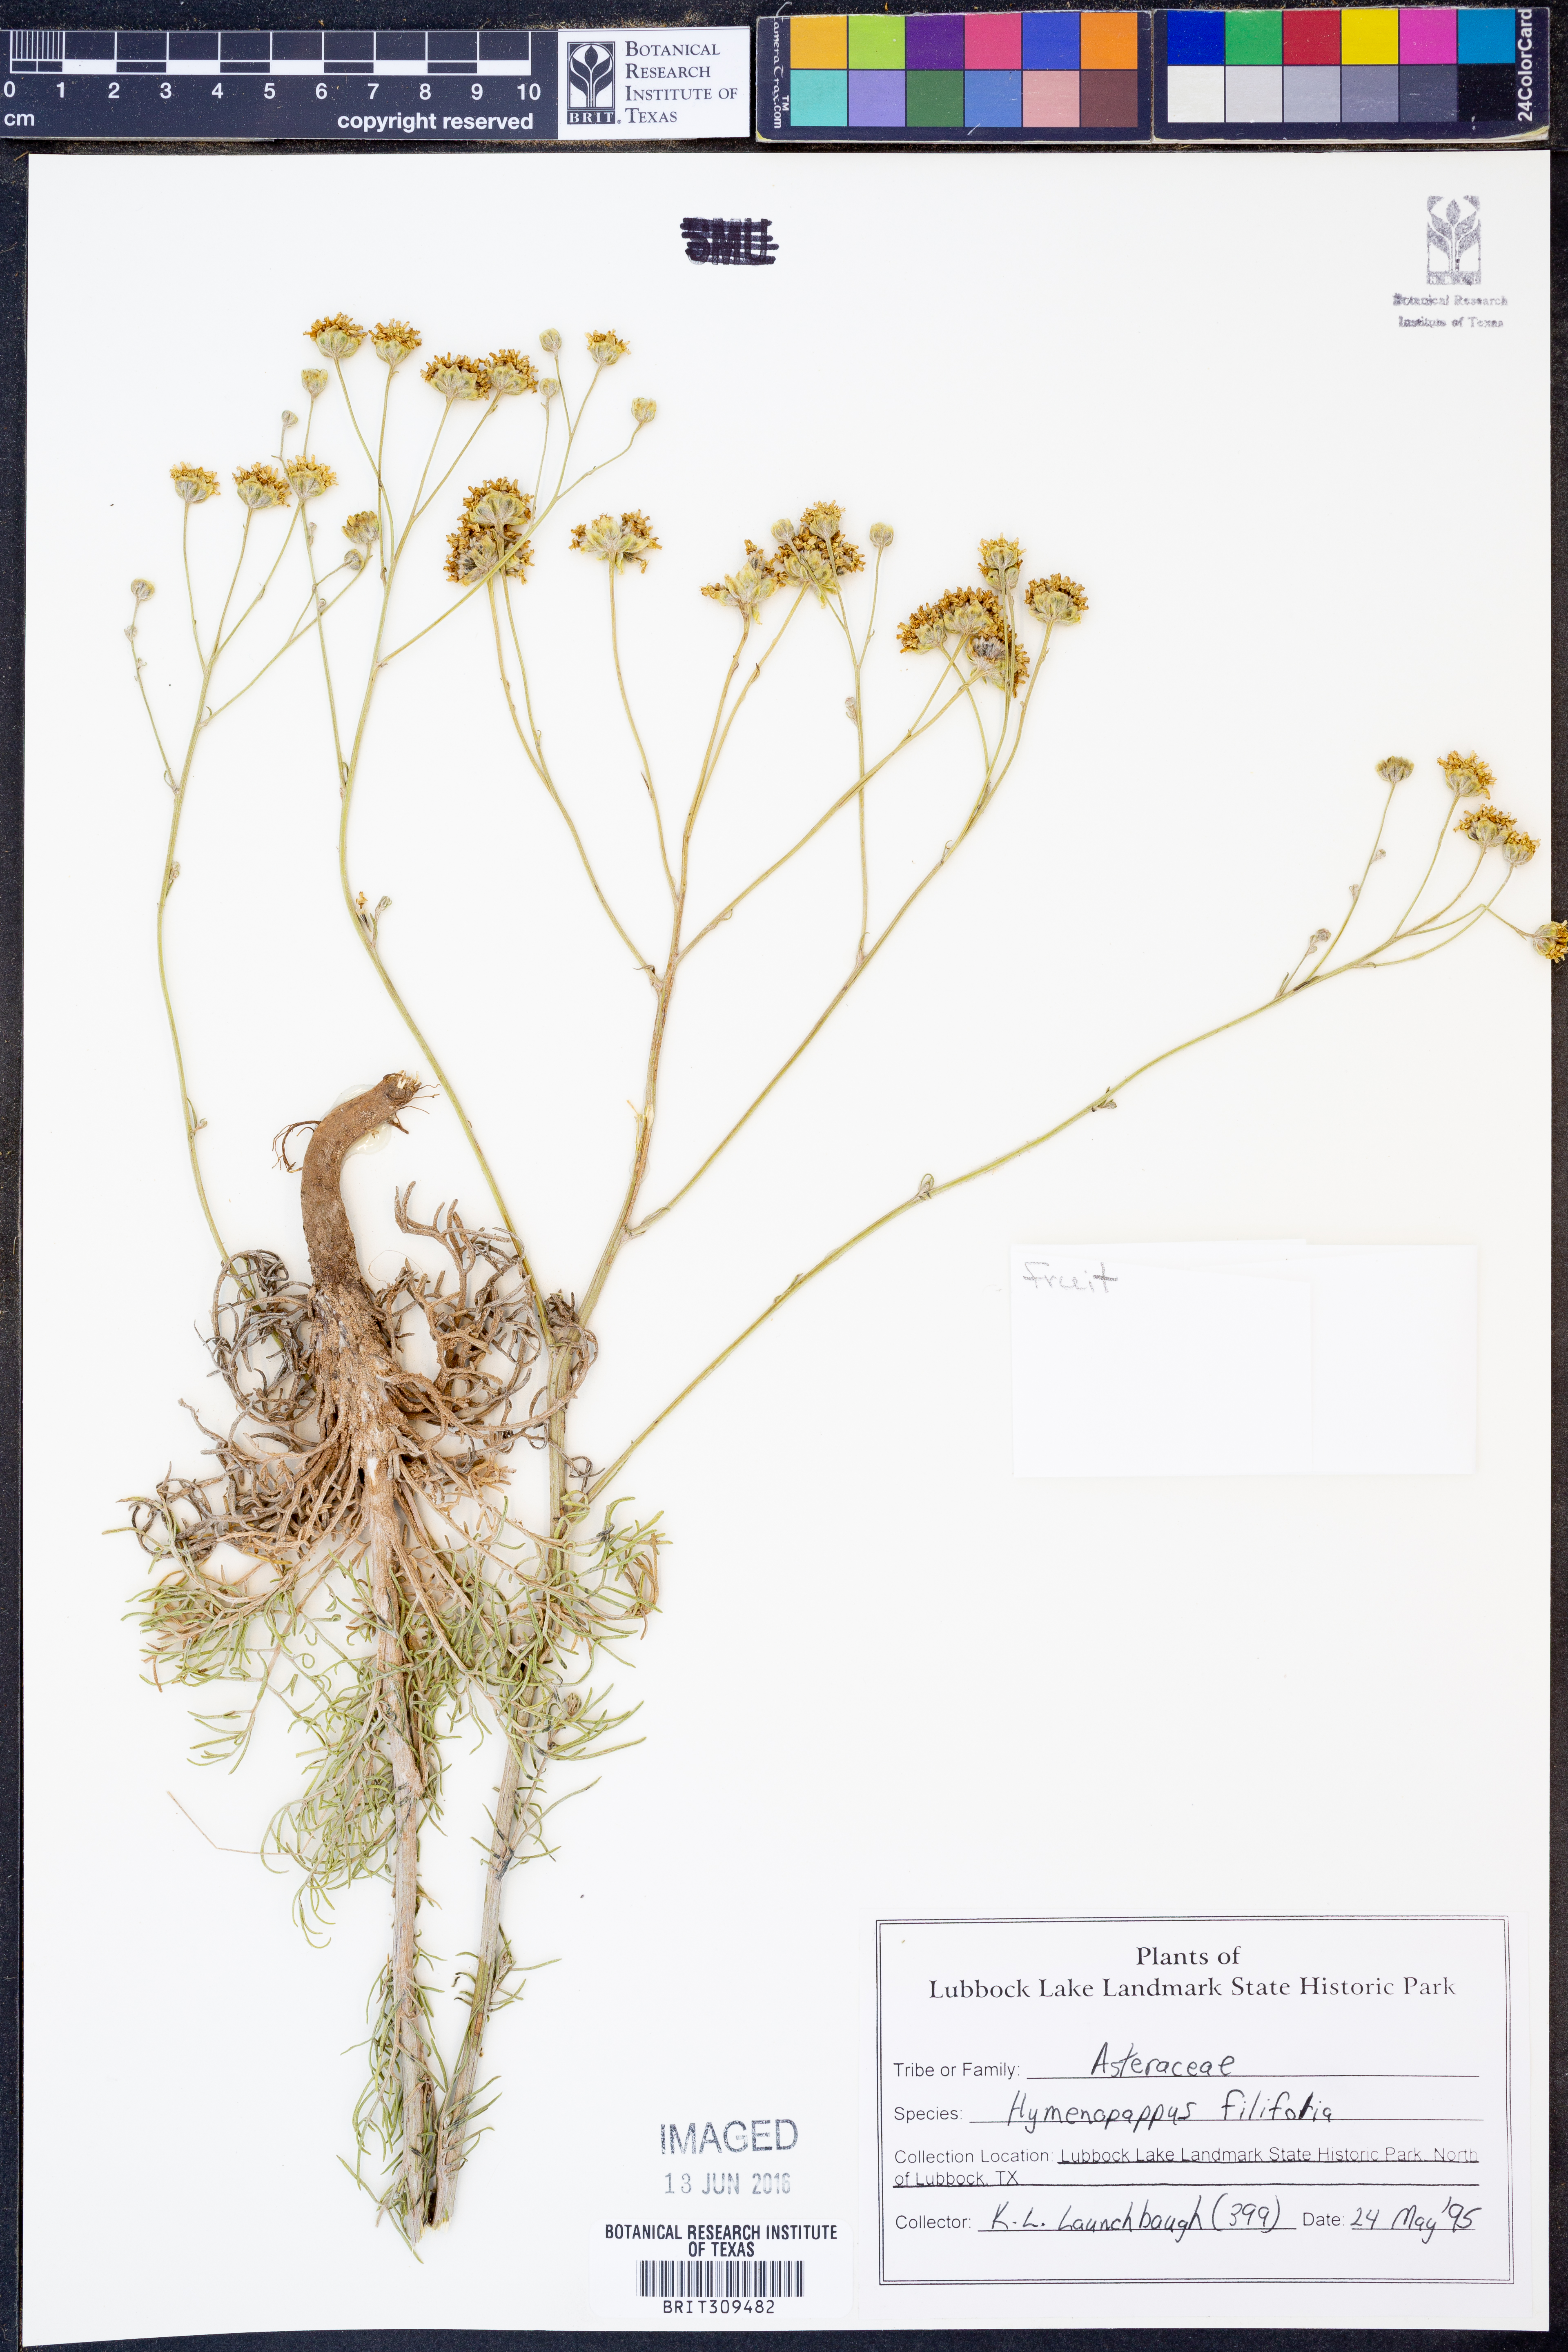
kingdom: Plantae
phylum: Tracheophyta
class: Magnoliopsida
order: Asterales
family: Asteraceae
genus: Hymenopappus
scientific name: Hymenopappus filifolius
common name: Columbia cutleaf
